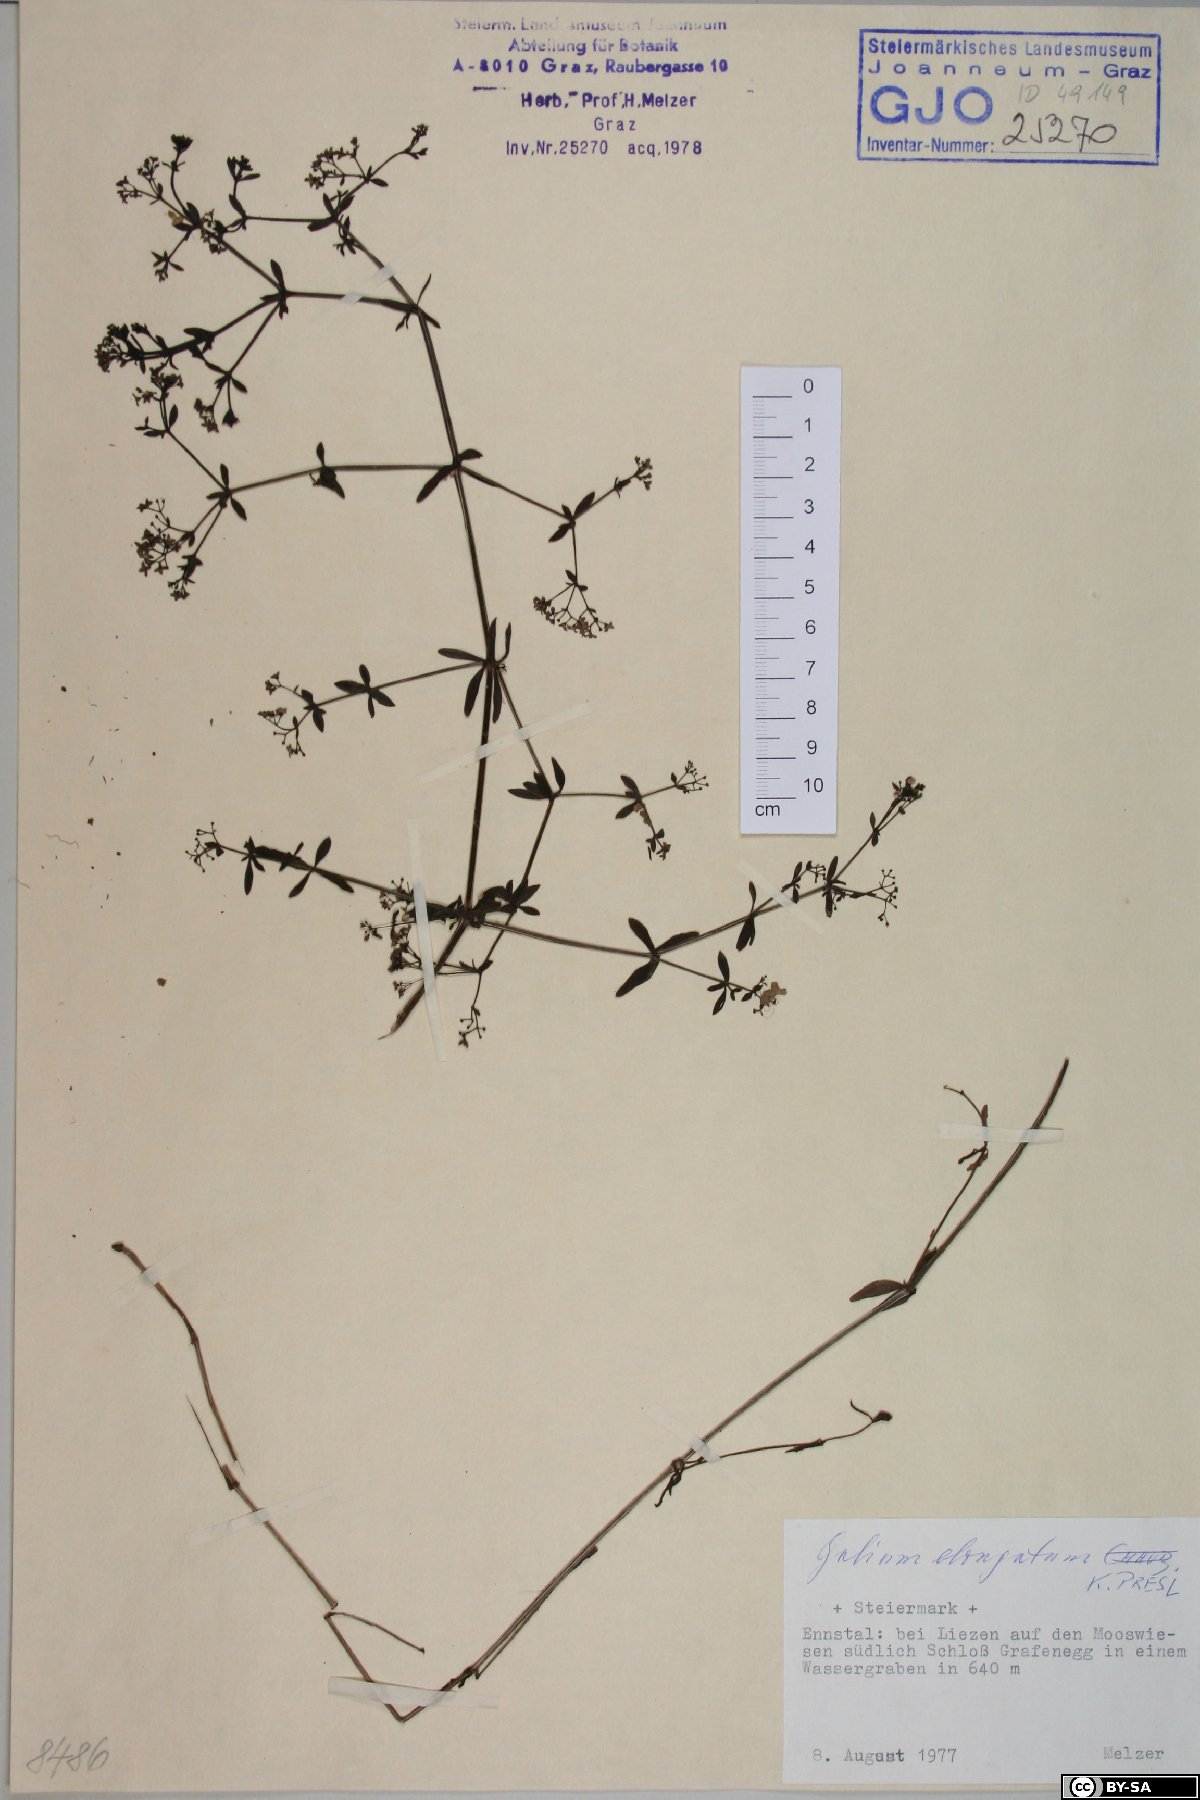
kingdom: Plantae
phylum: Tracheophyta
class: Magnoliopsida
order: Gentianales
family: Rubiaceae
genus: Galium
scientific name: Galium elongatum
